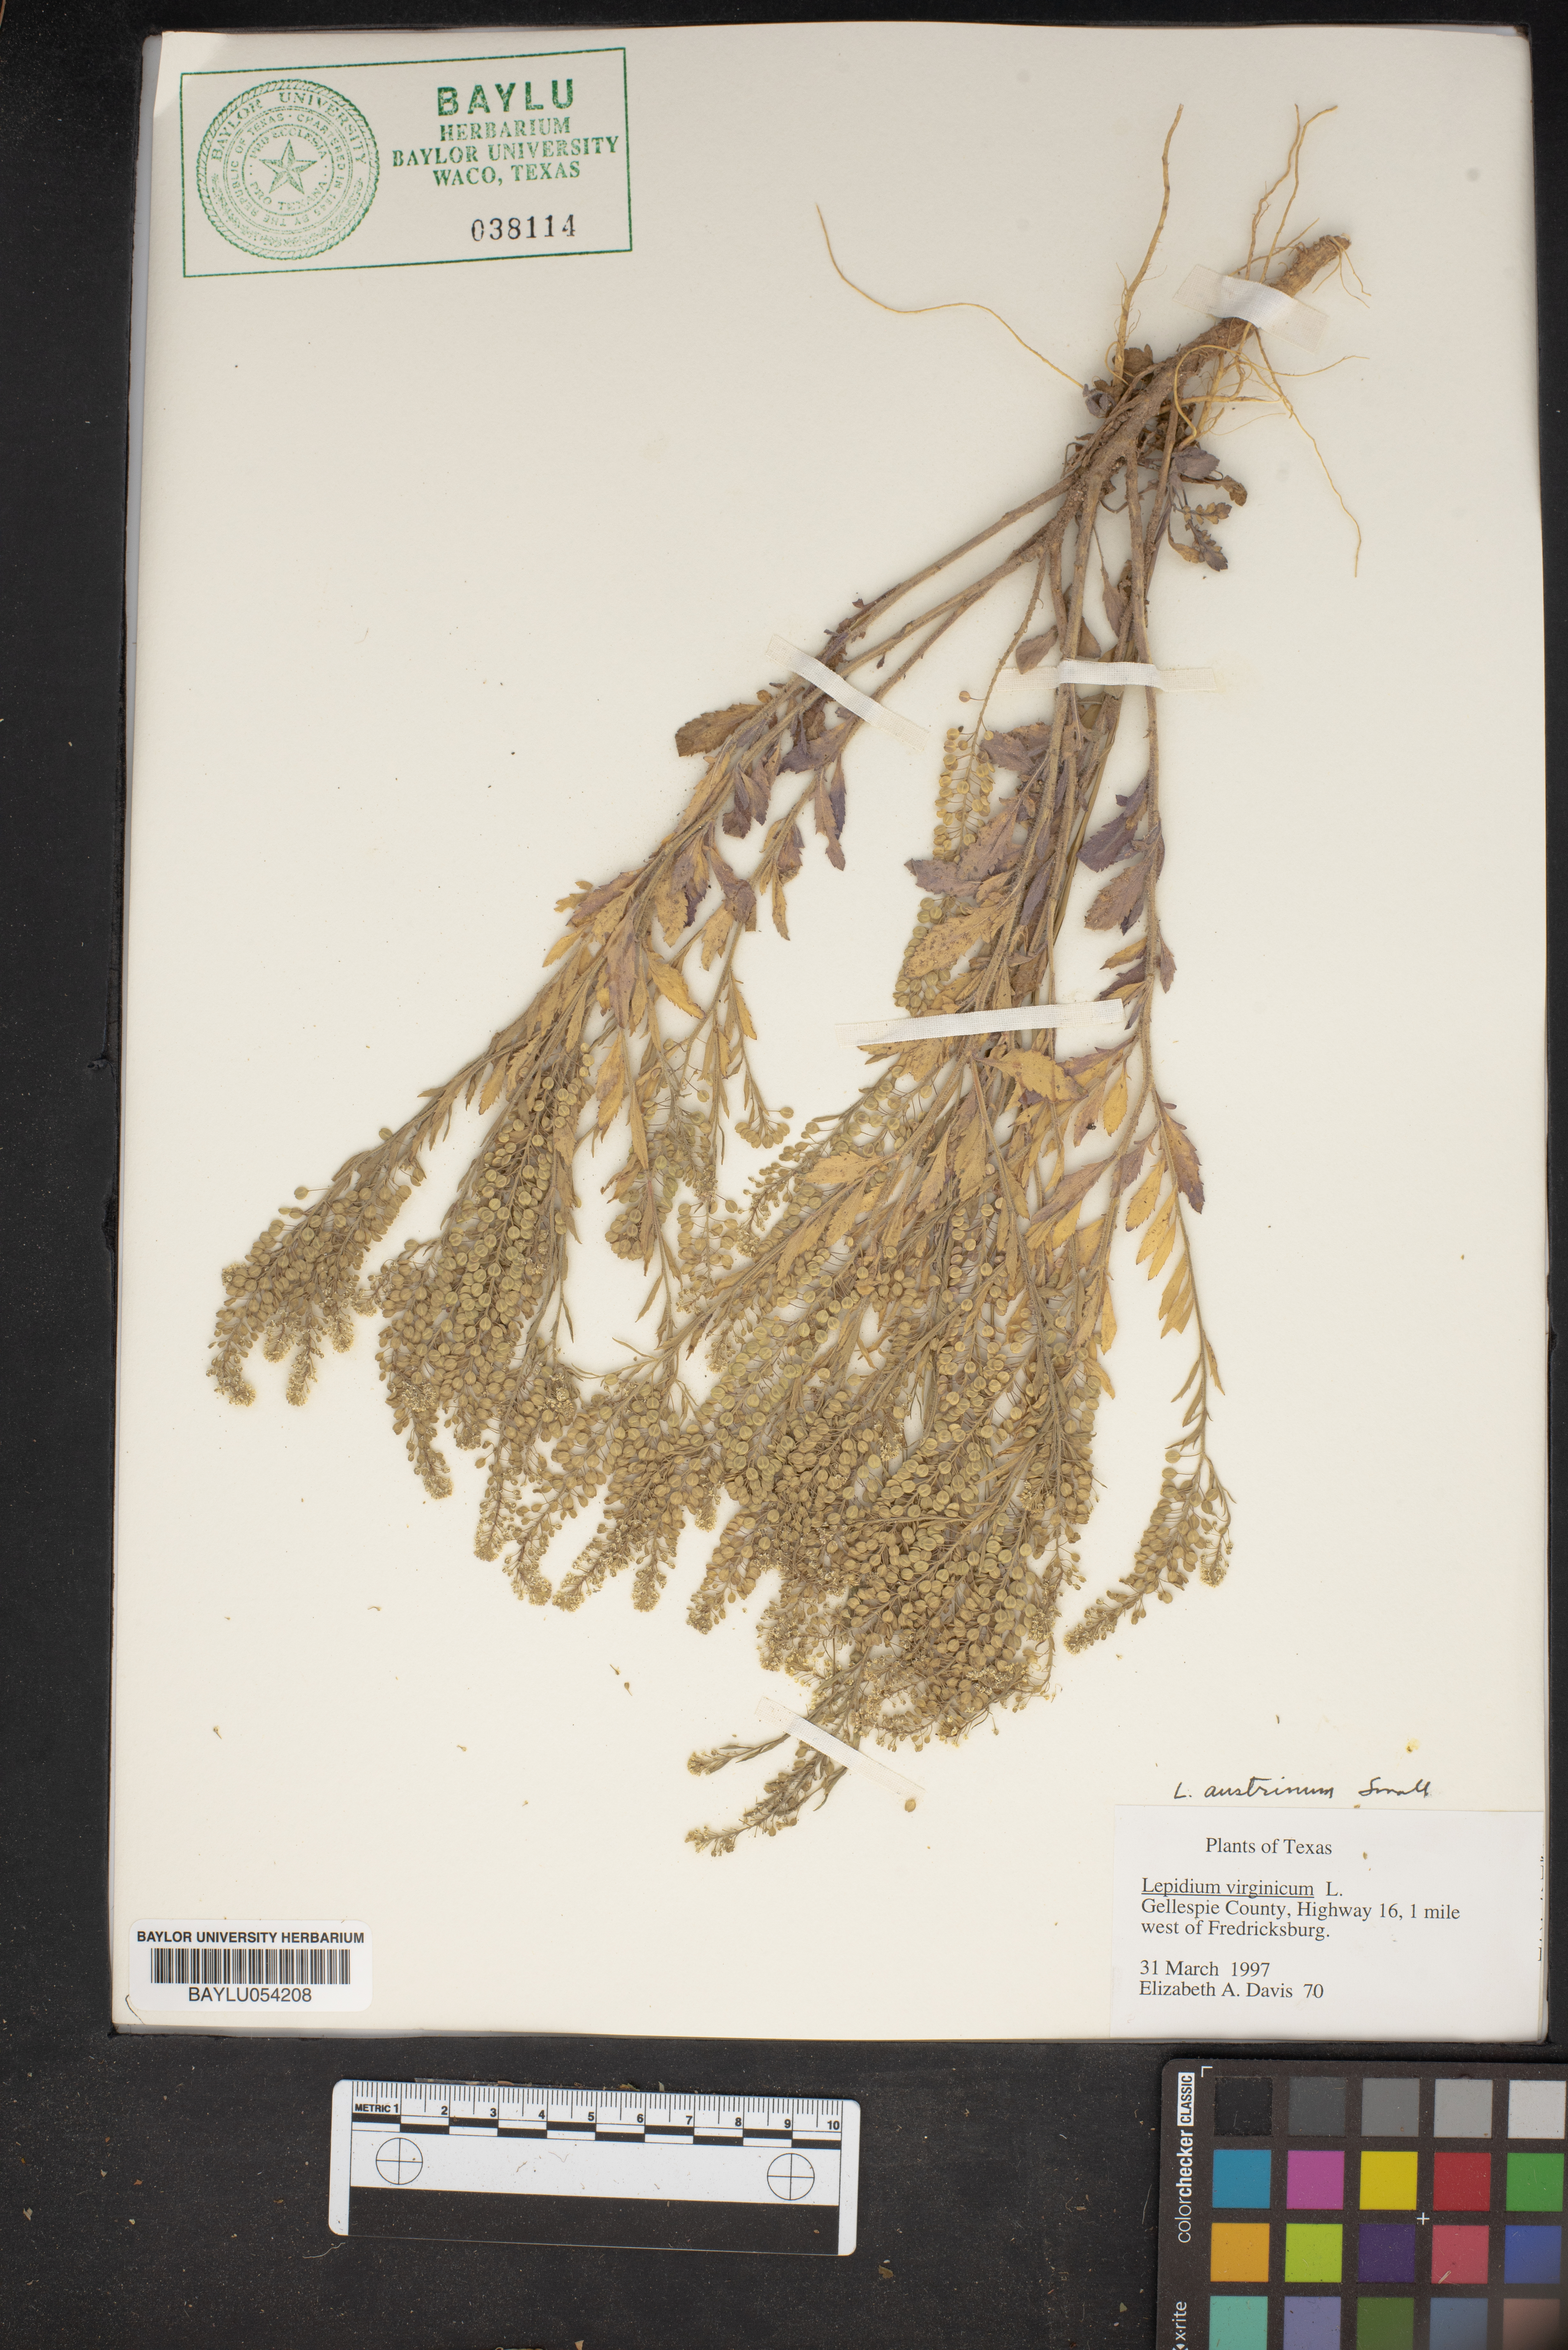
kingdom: Plantae
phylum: Tracheophyta
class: Magnoliopsida
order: Brassicales
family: Brassicaceae
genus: Lepidium
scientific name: Lepidium virginicum
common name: Least pepperwort
